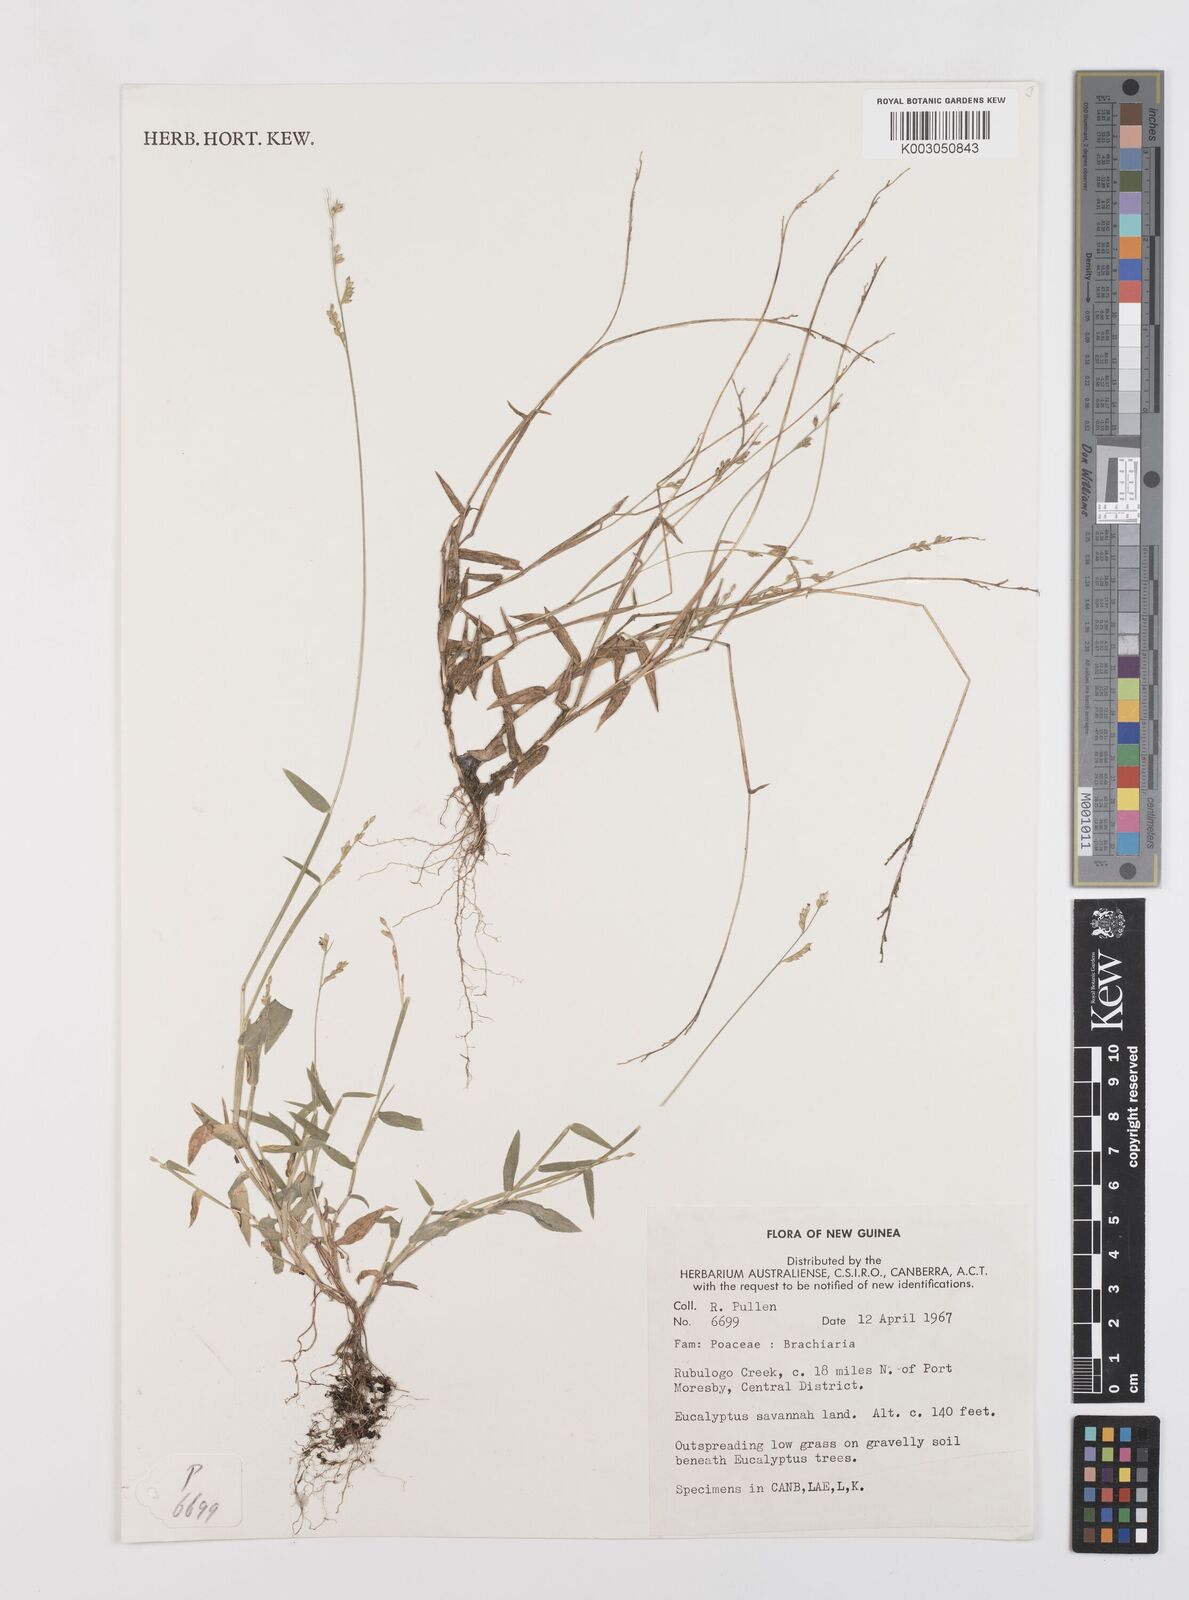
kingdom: Plantae
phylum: Tracheophyta
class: Liliopsida
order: Poales
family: Poaceae
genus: Urochloa
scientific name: Urochloa villosa
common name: Hairy signalgrass
